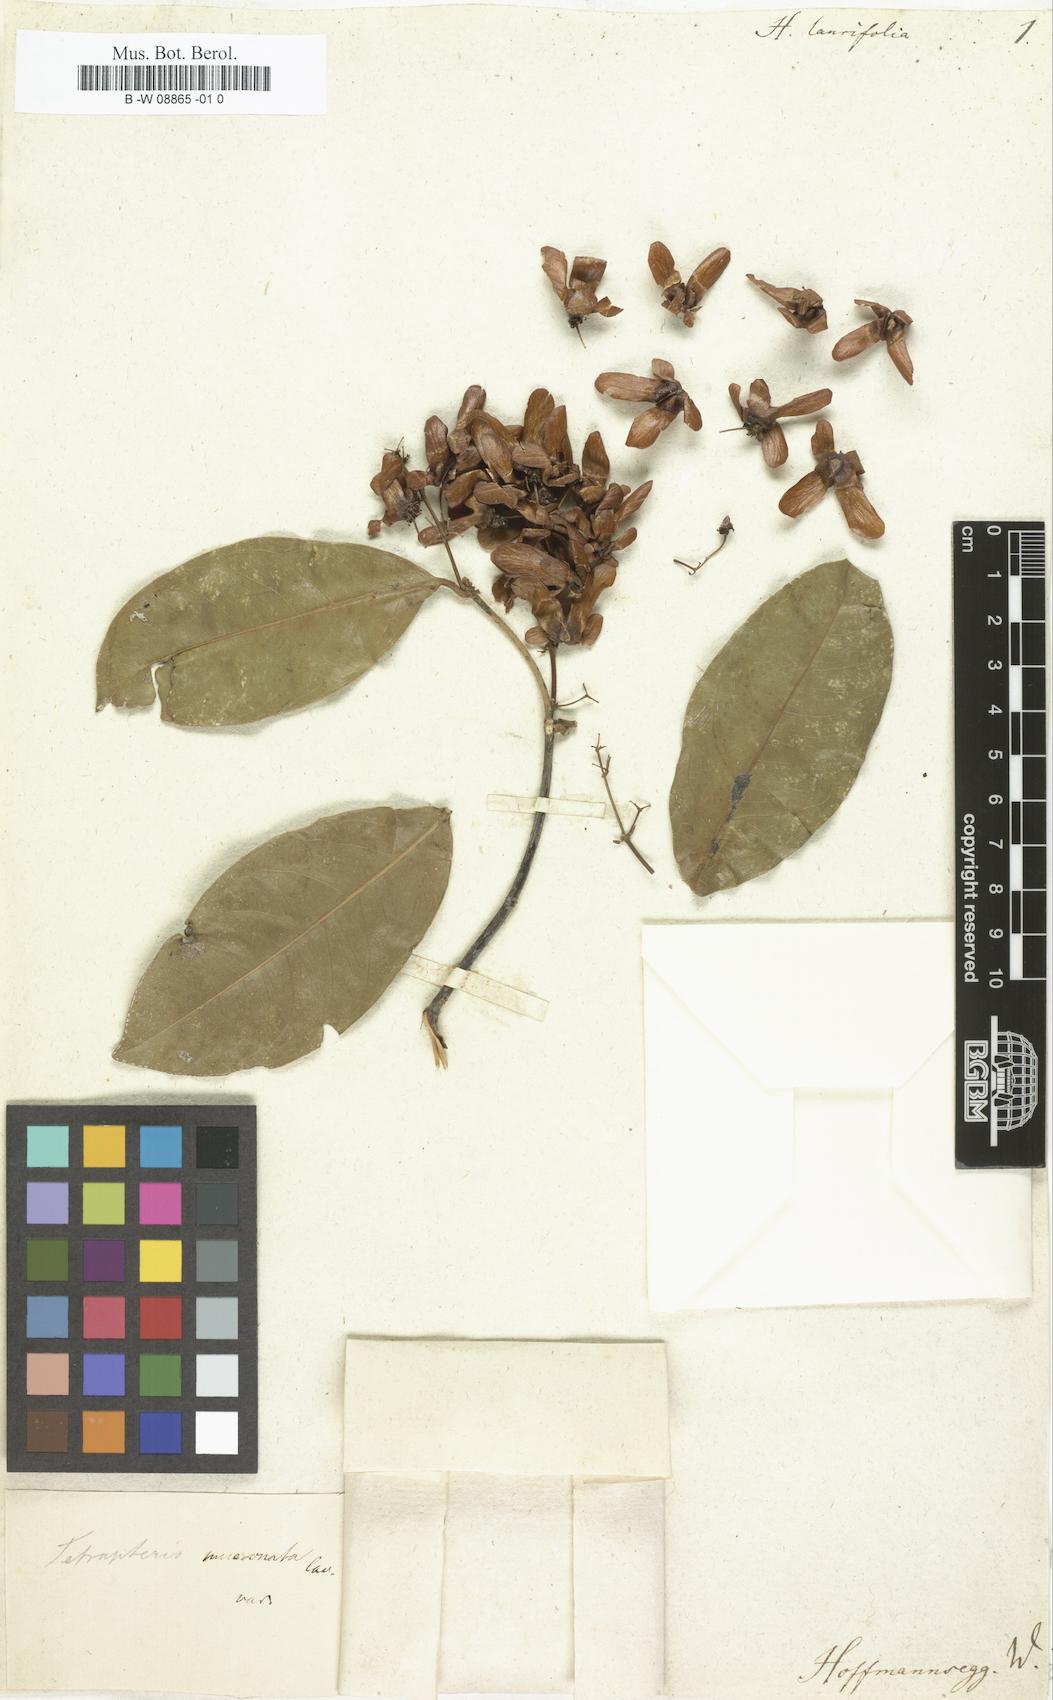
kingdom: Plantae
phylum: Tracheophyta
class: Magnoliopsida
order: Malpighiales
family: Malpighiaceae
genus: Niedenzuella
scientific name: Niedenzuella sericea
